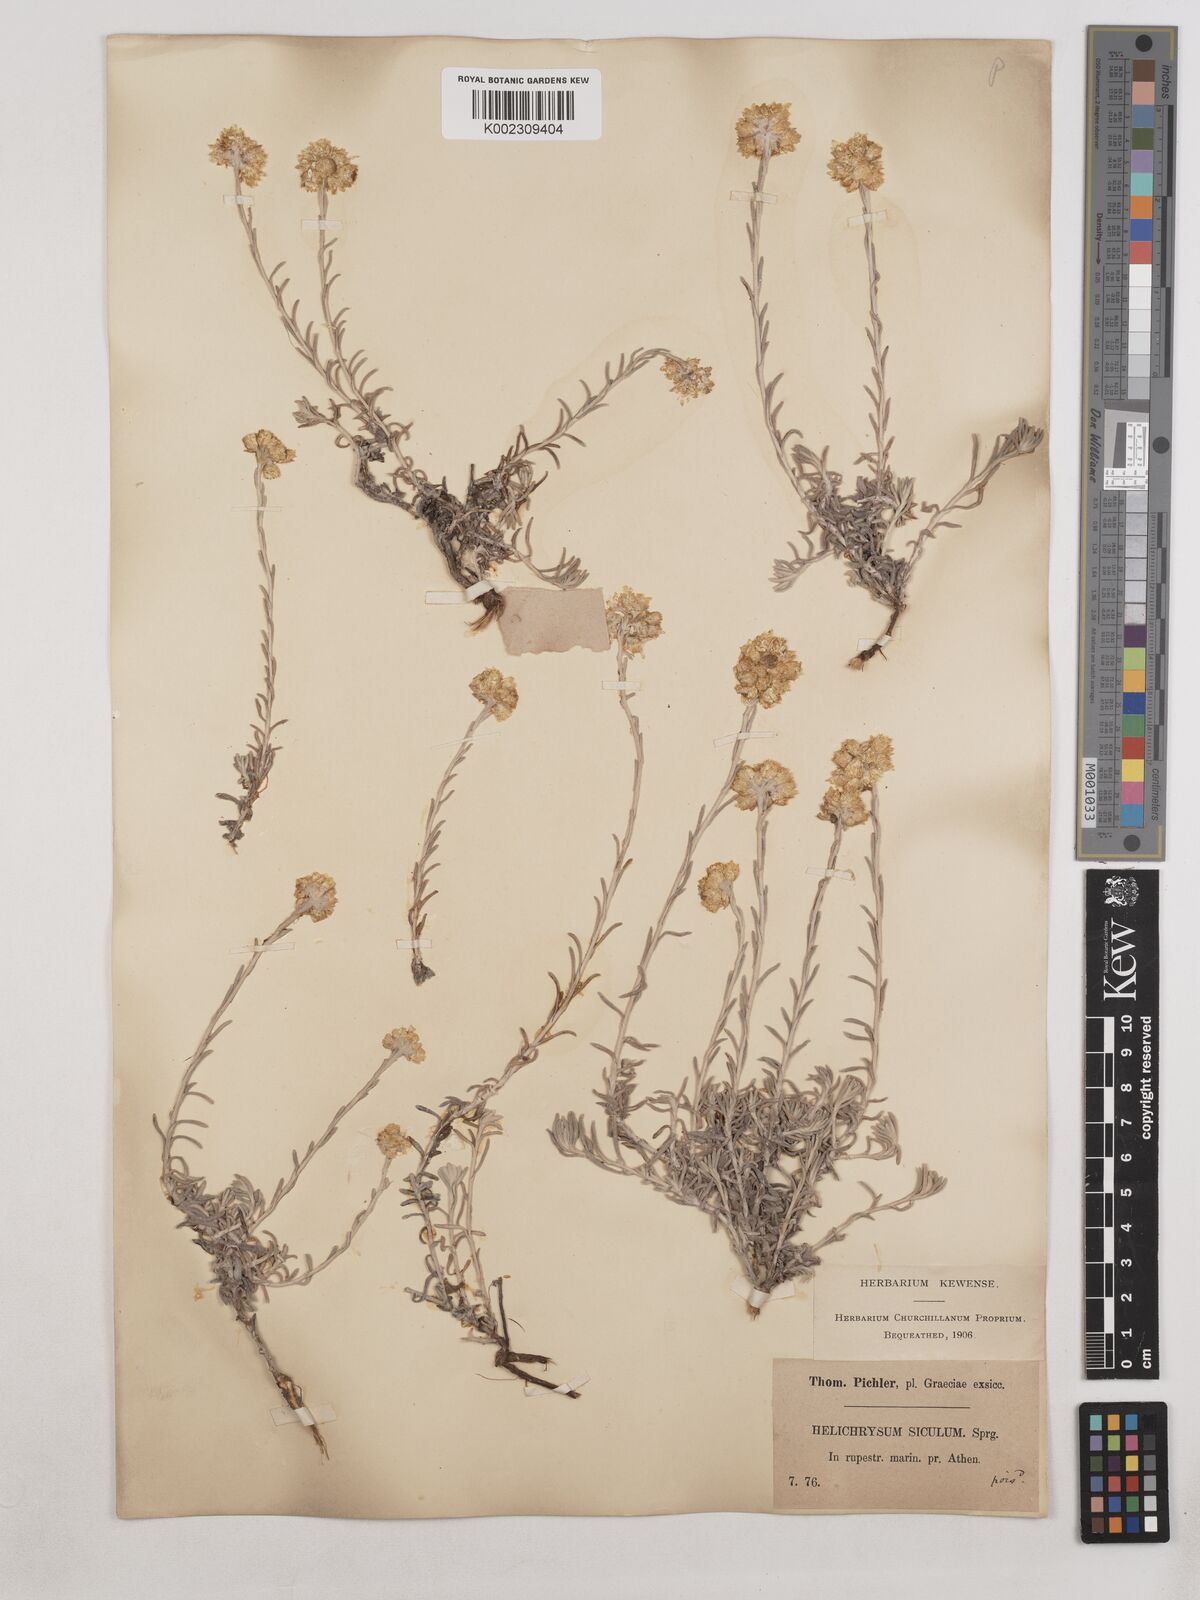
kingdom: Plantae
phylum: Tracheophyta
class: Magnoliopsida
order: Asterales
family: Asteraceae
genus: Helichrysum
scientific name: Helichrysum stoechas
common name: Goldilocks
